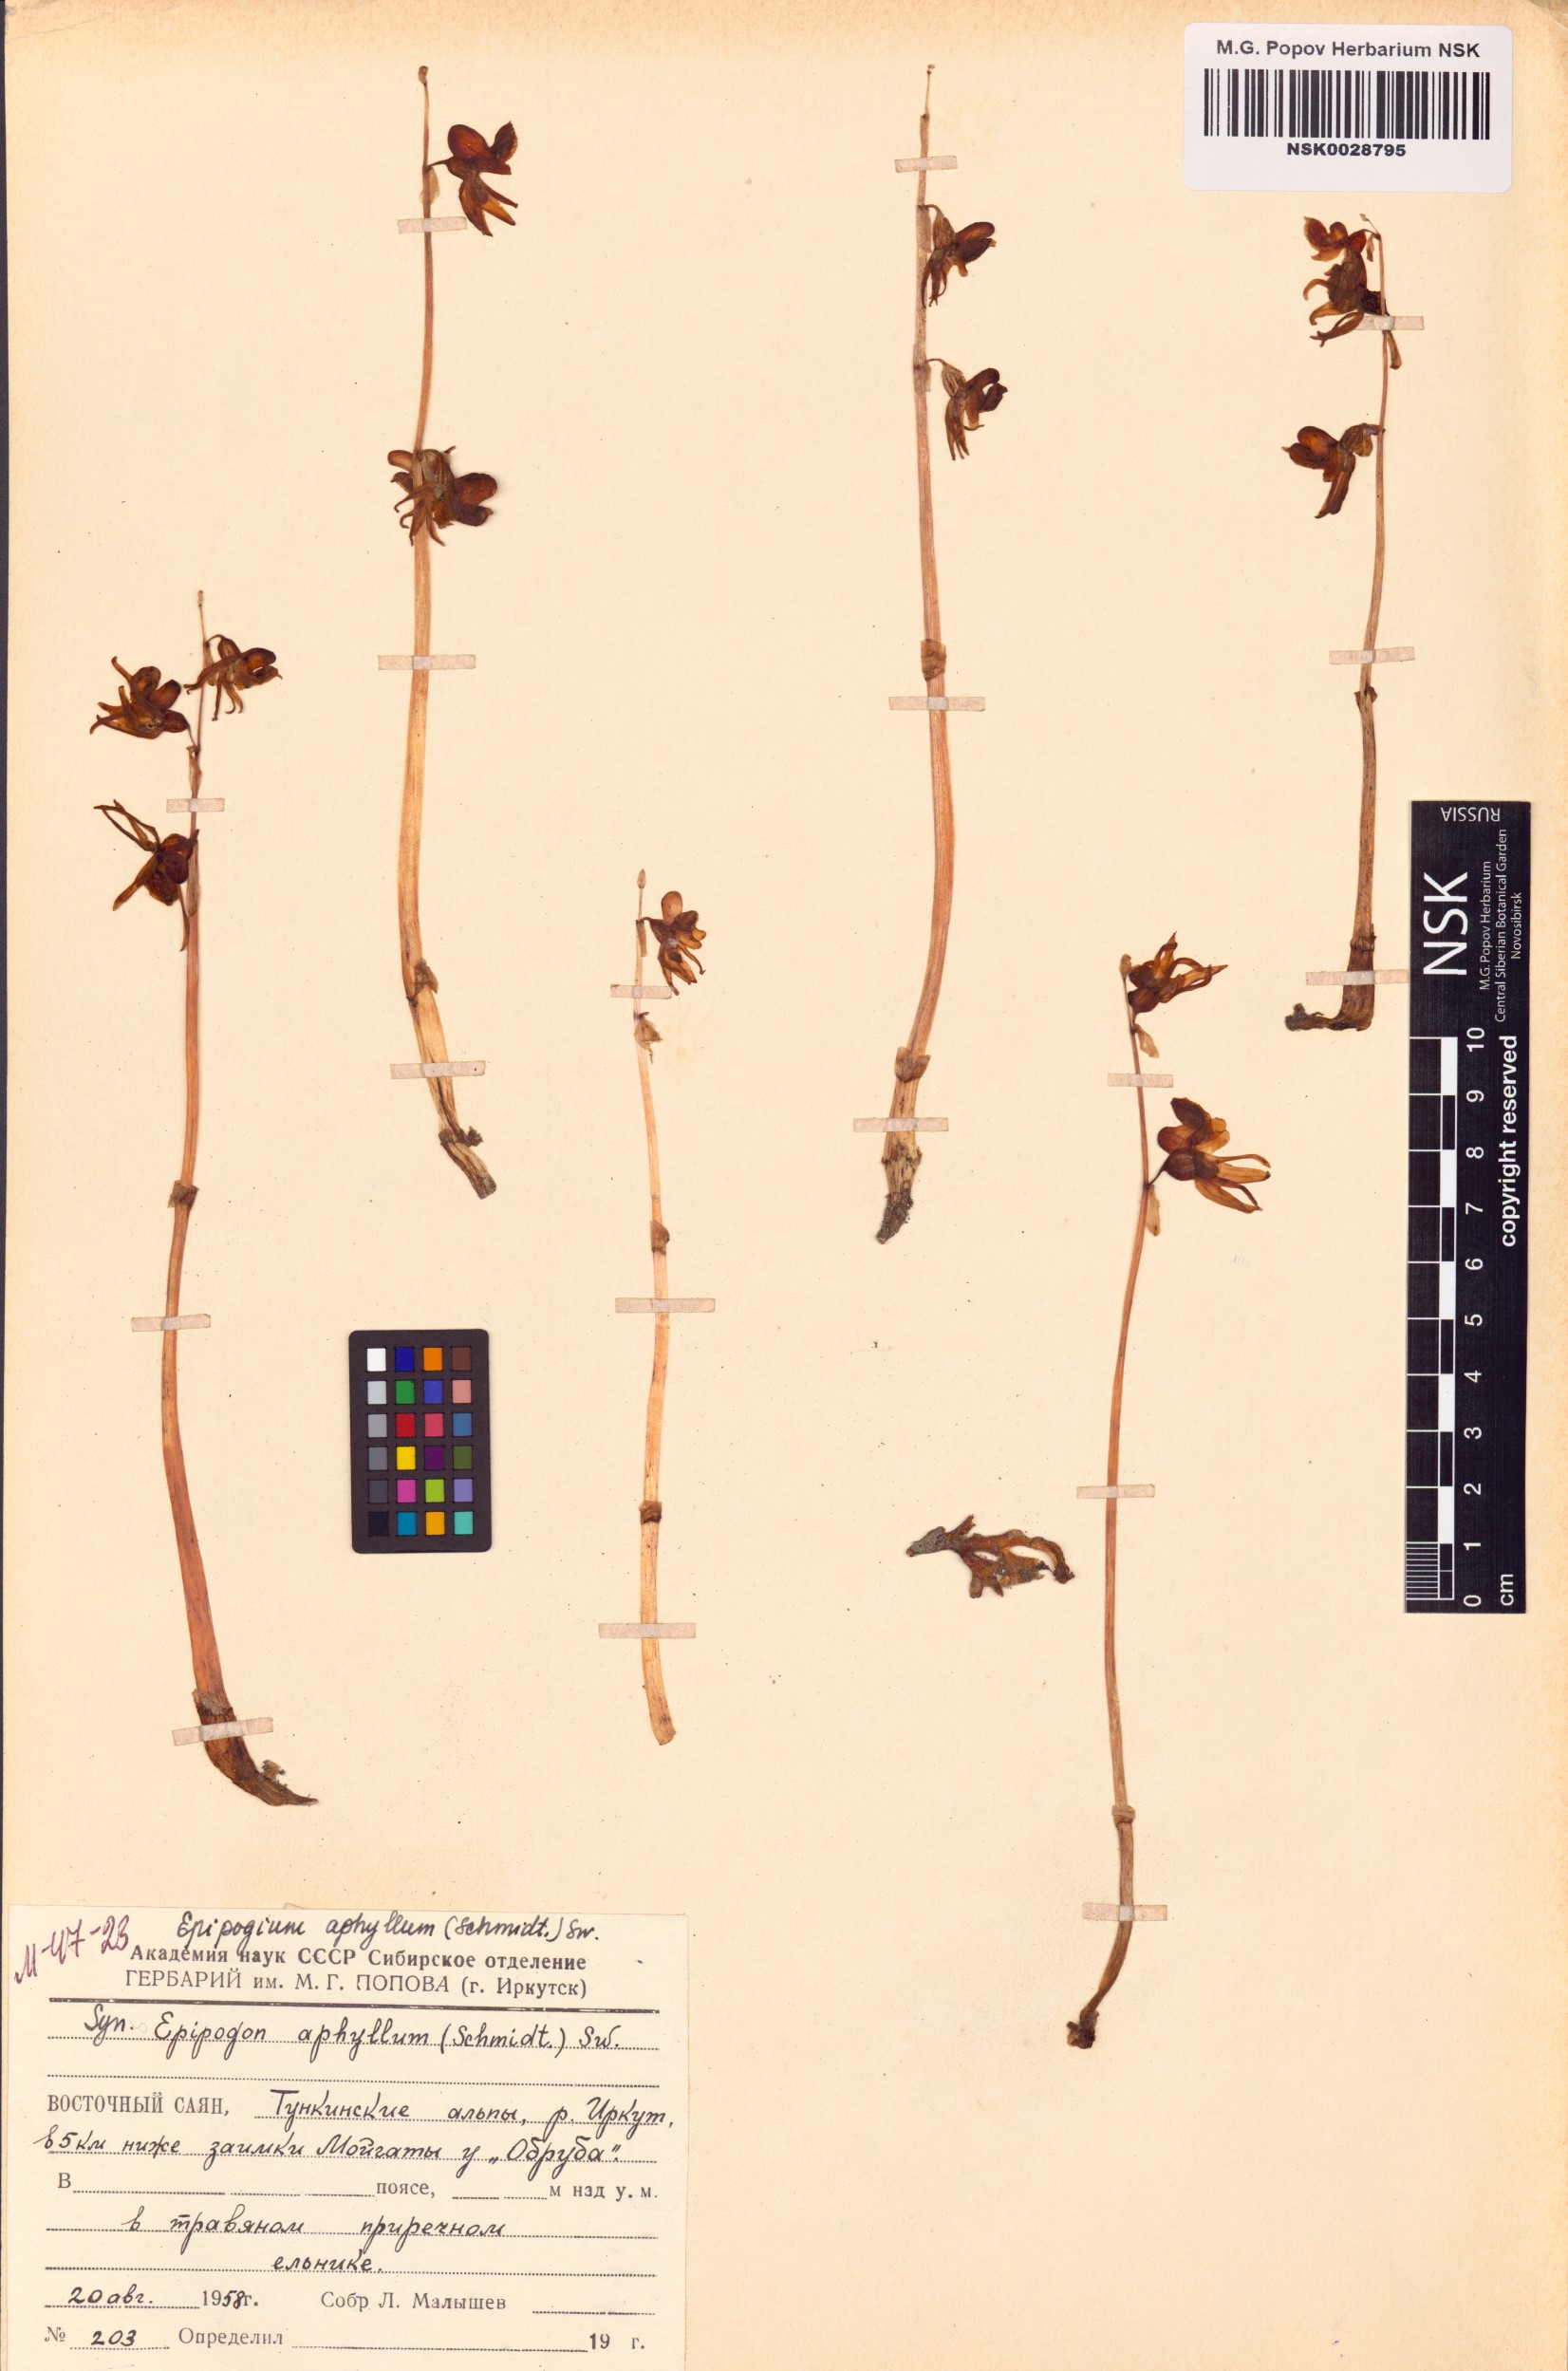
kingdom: Plantae
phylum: Tracheophyta
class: Liliopsida
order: Asparagales
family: Orchidaceae
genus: Epipogium
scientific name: Epipogium aphyllum
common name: Ghost orchid
